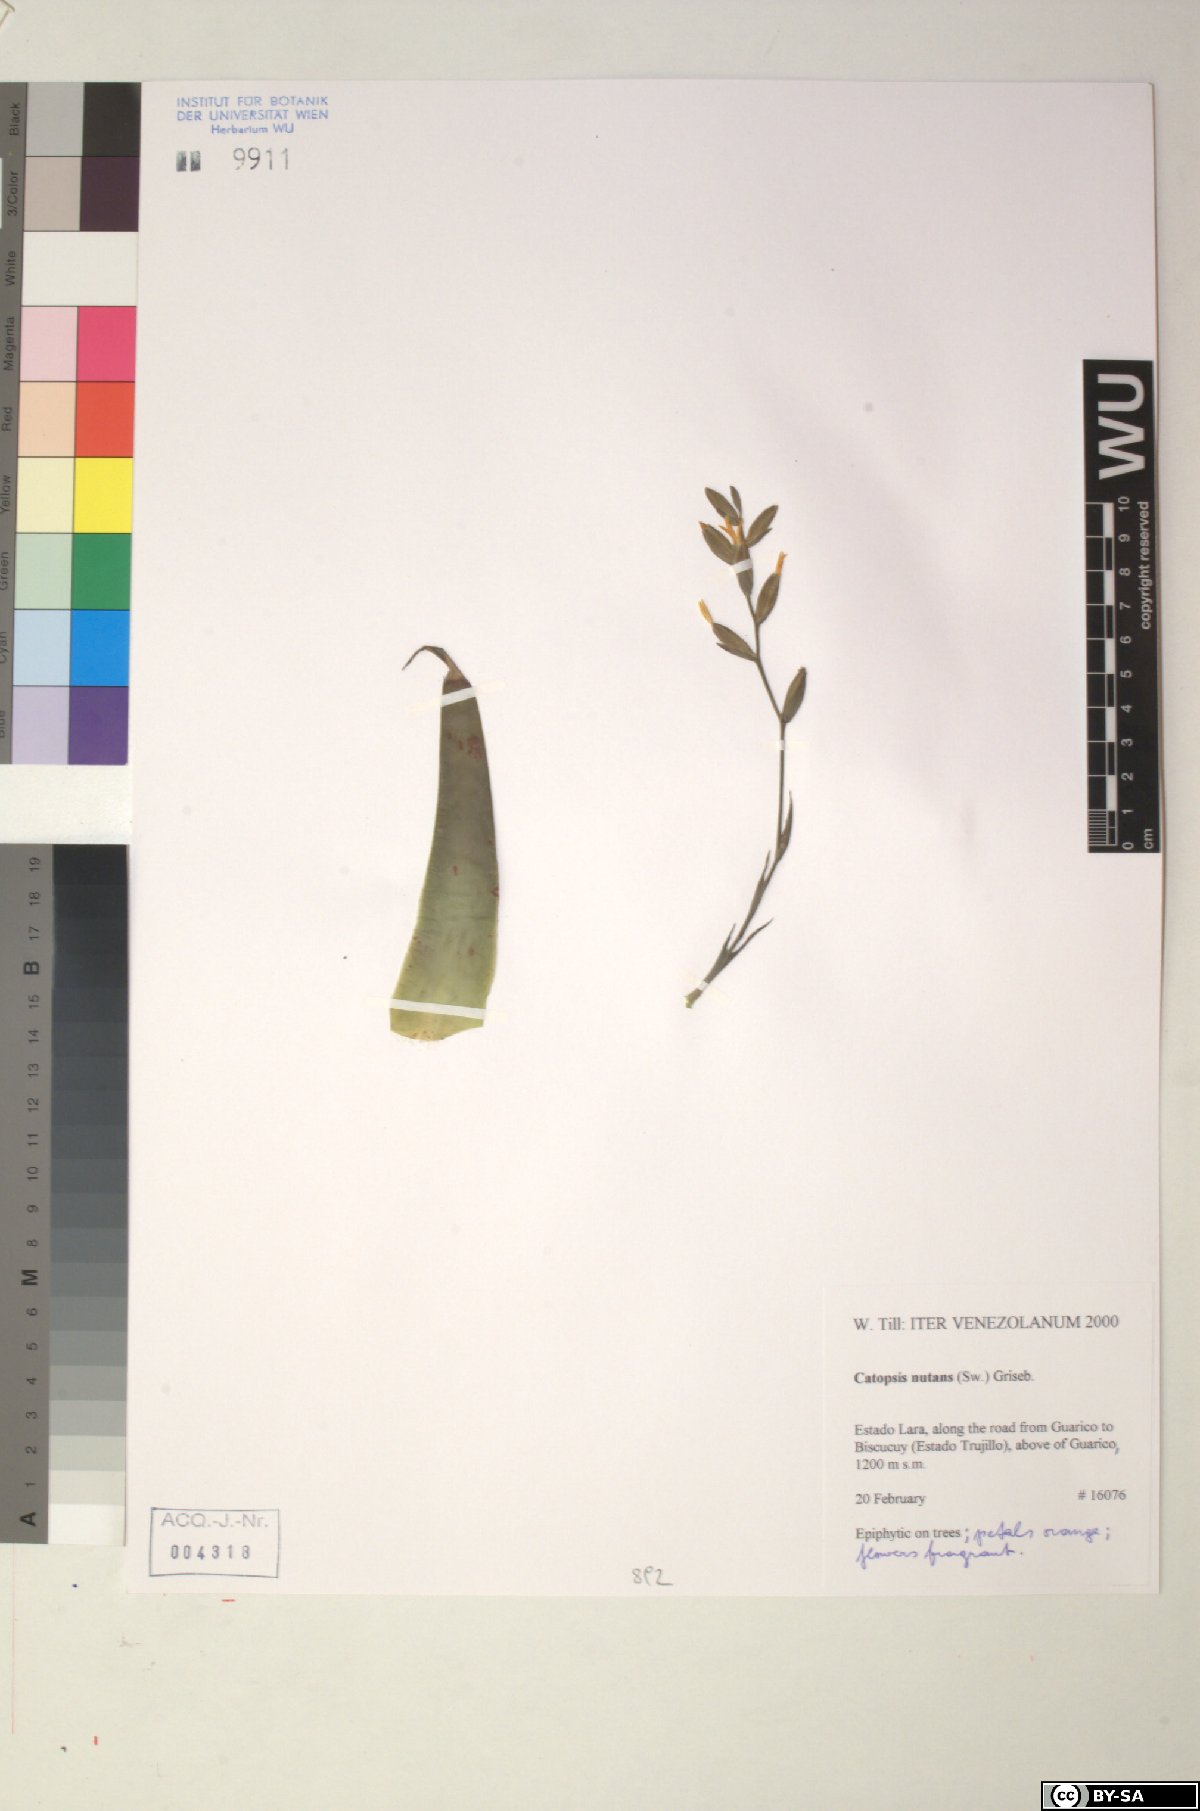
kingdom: Plantae
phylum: Tracheophyta
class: Liliopsida
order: Poales
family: Bromeliaceae
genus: Catopsis
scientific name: Catopsis nutans
